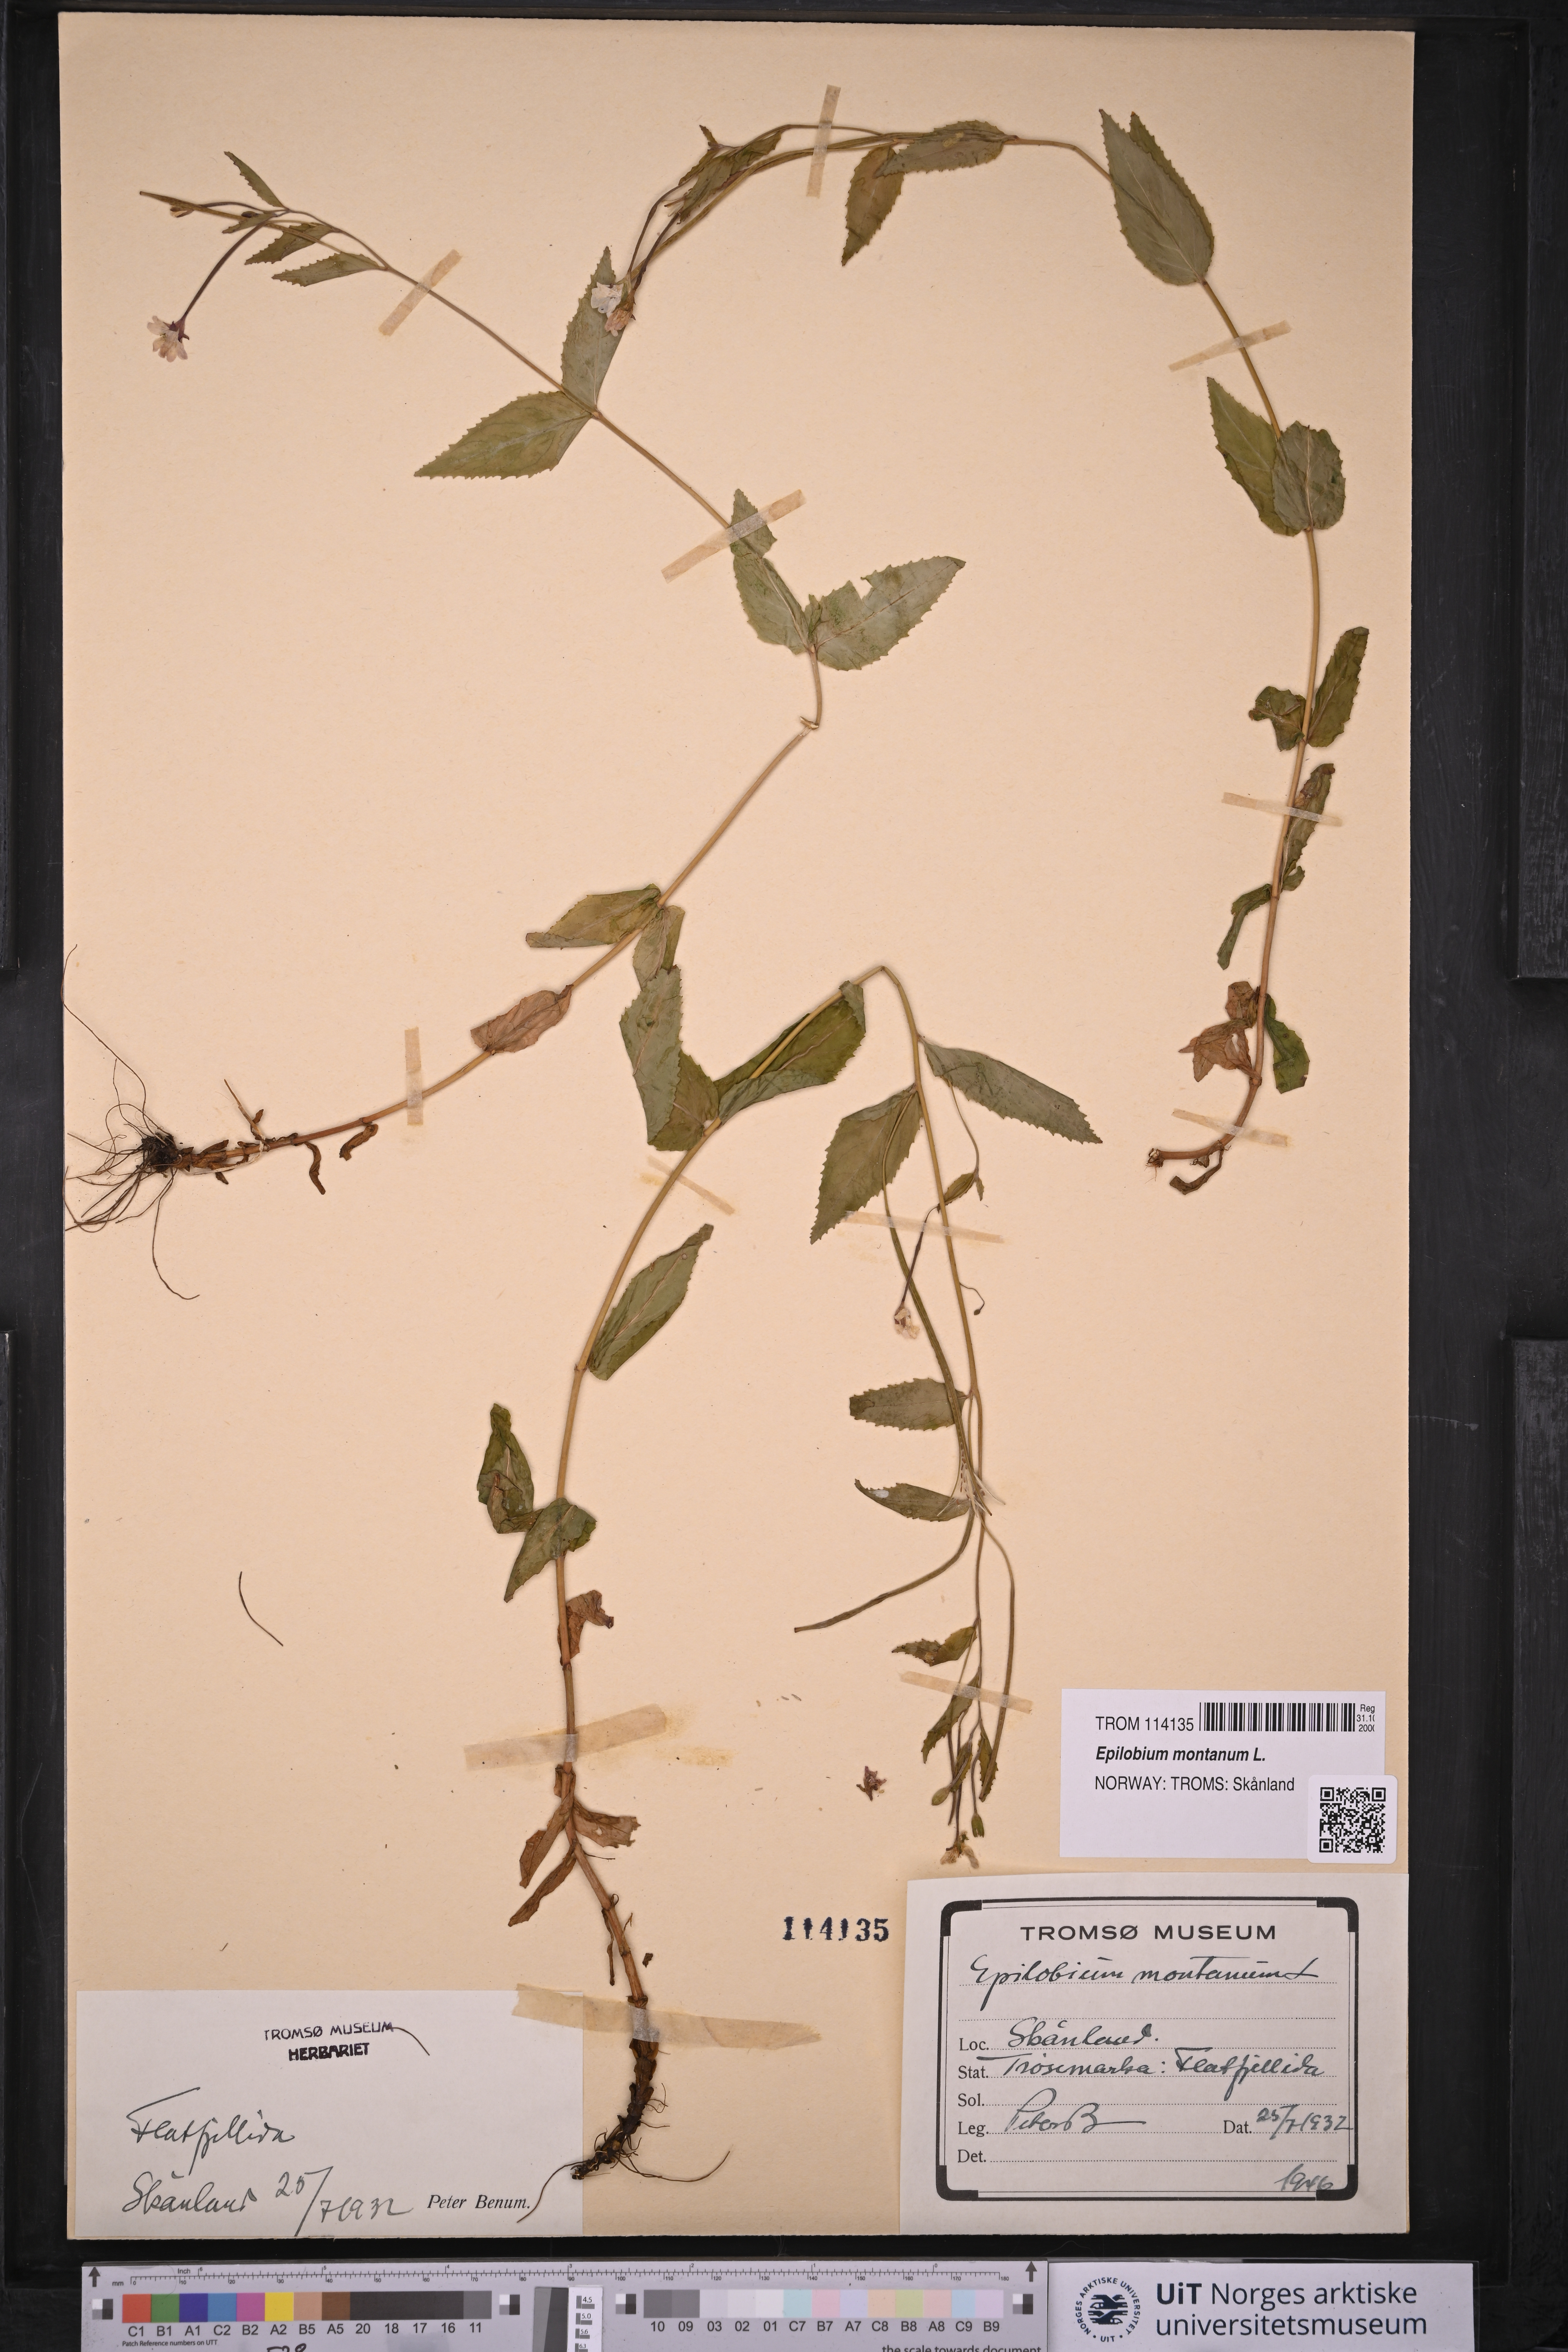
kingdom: Plantae
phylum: Tracheophyta
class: Magnoliopsida
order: Myrtales
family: Onagraceae
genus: Epilobium
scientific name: Epilobium montanum
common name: Broad-leaved willowherb
